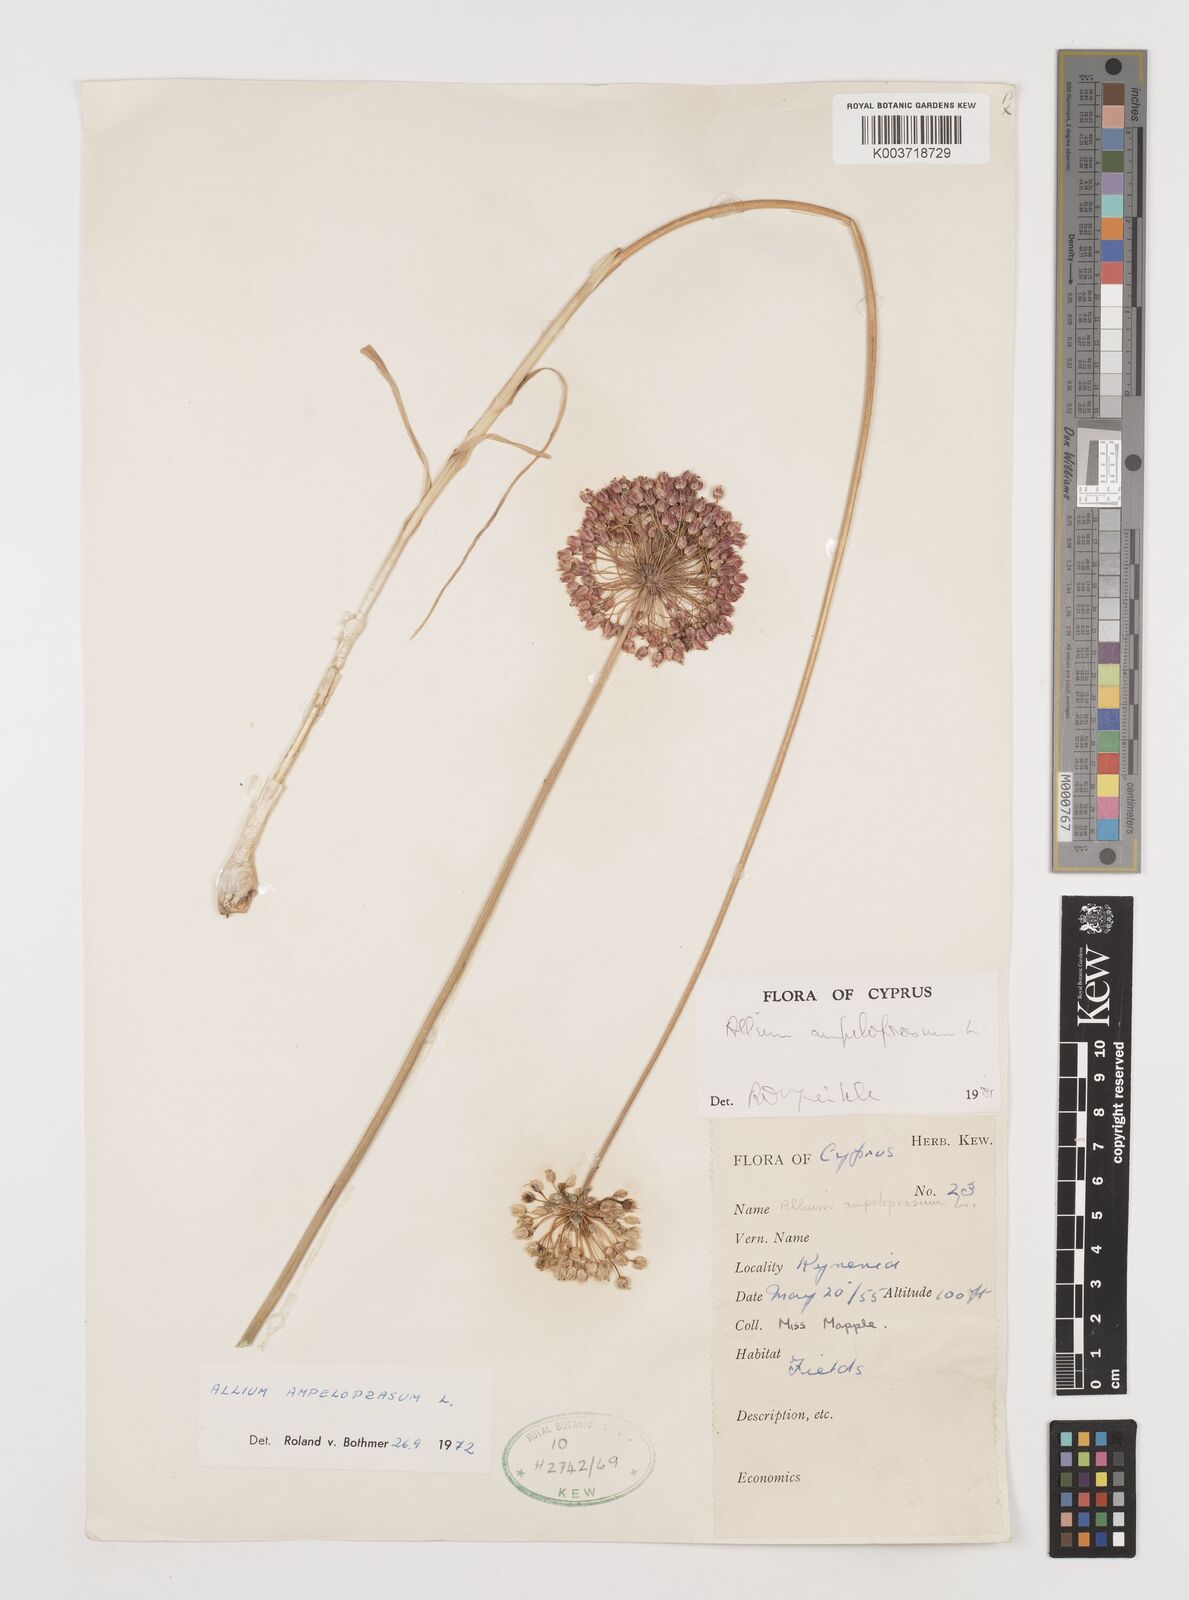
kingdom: Plantae
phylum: Tracheophyta
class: Liliopsida
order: Asparagales
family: Amaryllidaceae
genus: Allium
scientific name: Allium ampeloprasum
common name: Wild leek
